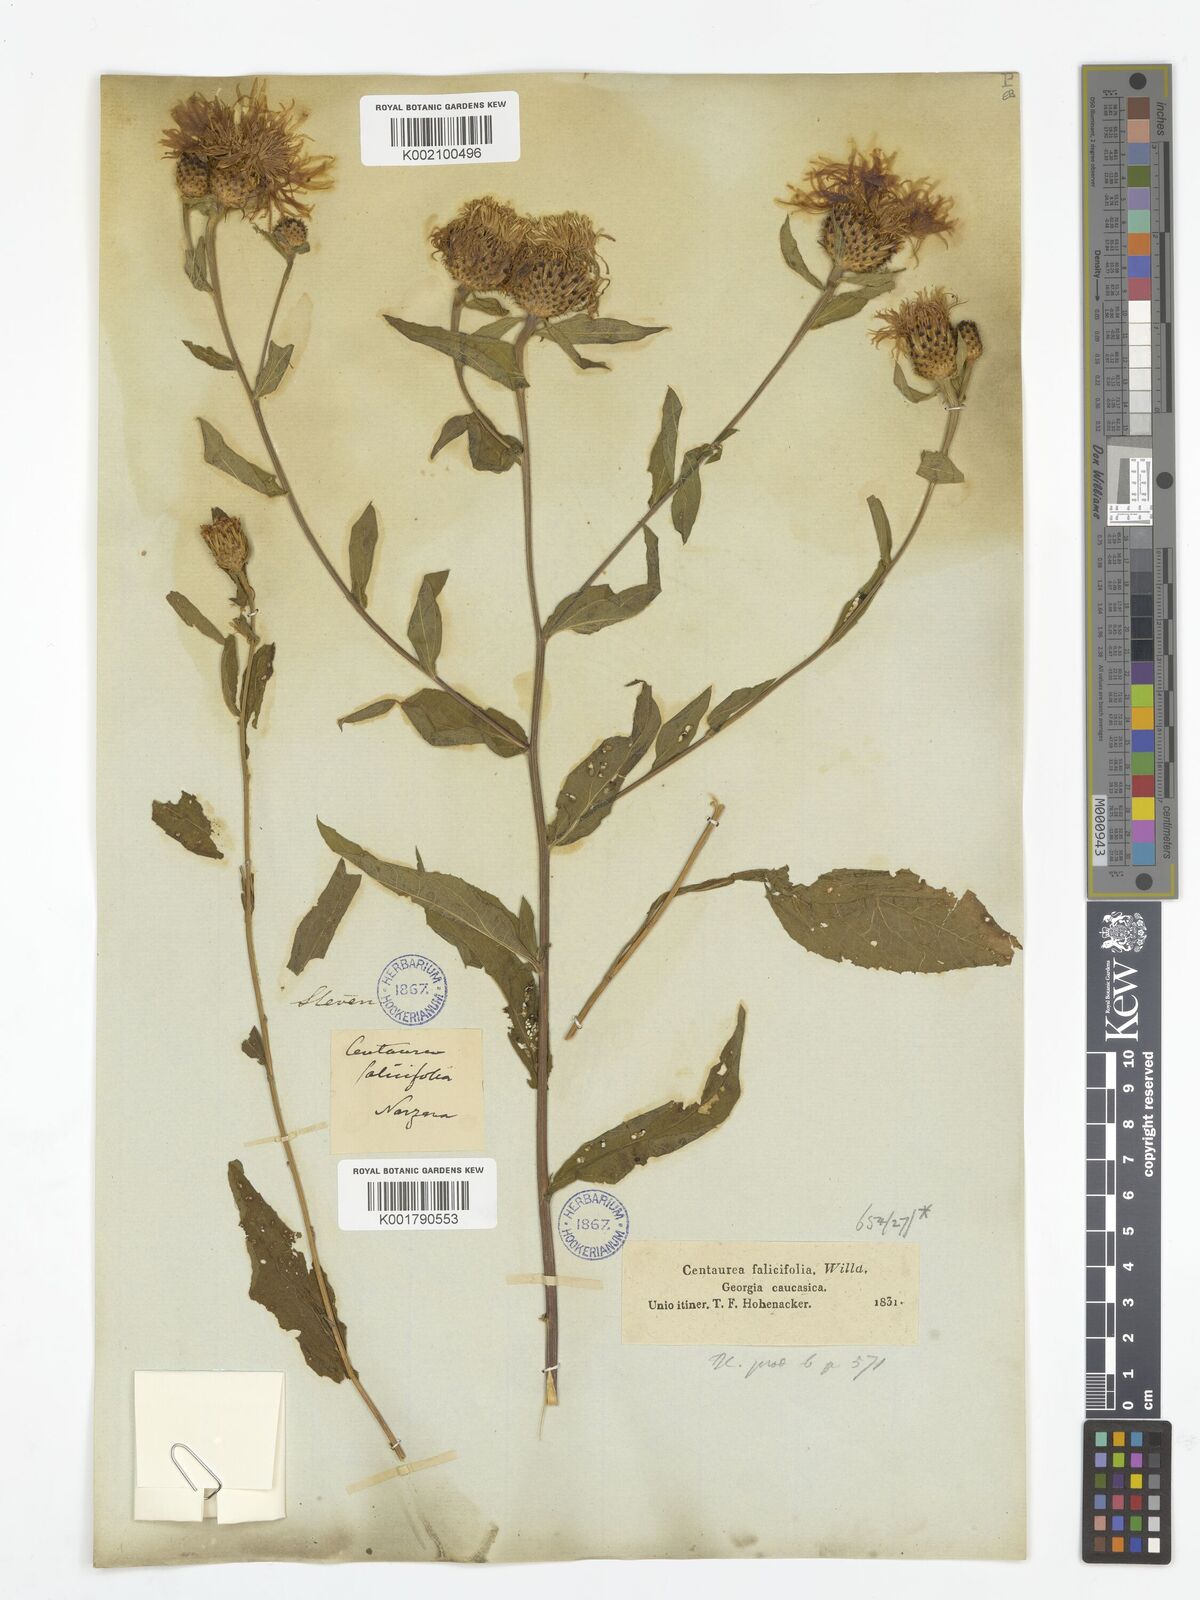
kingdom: Plantae
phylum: Tracheophyta
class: Magnoliopsida
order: Asterales
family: Asteraceae
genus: Centaurea
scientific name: Centaurea phrygia
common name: Wig knapweed
